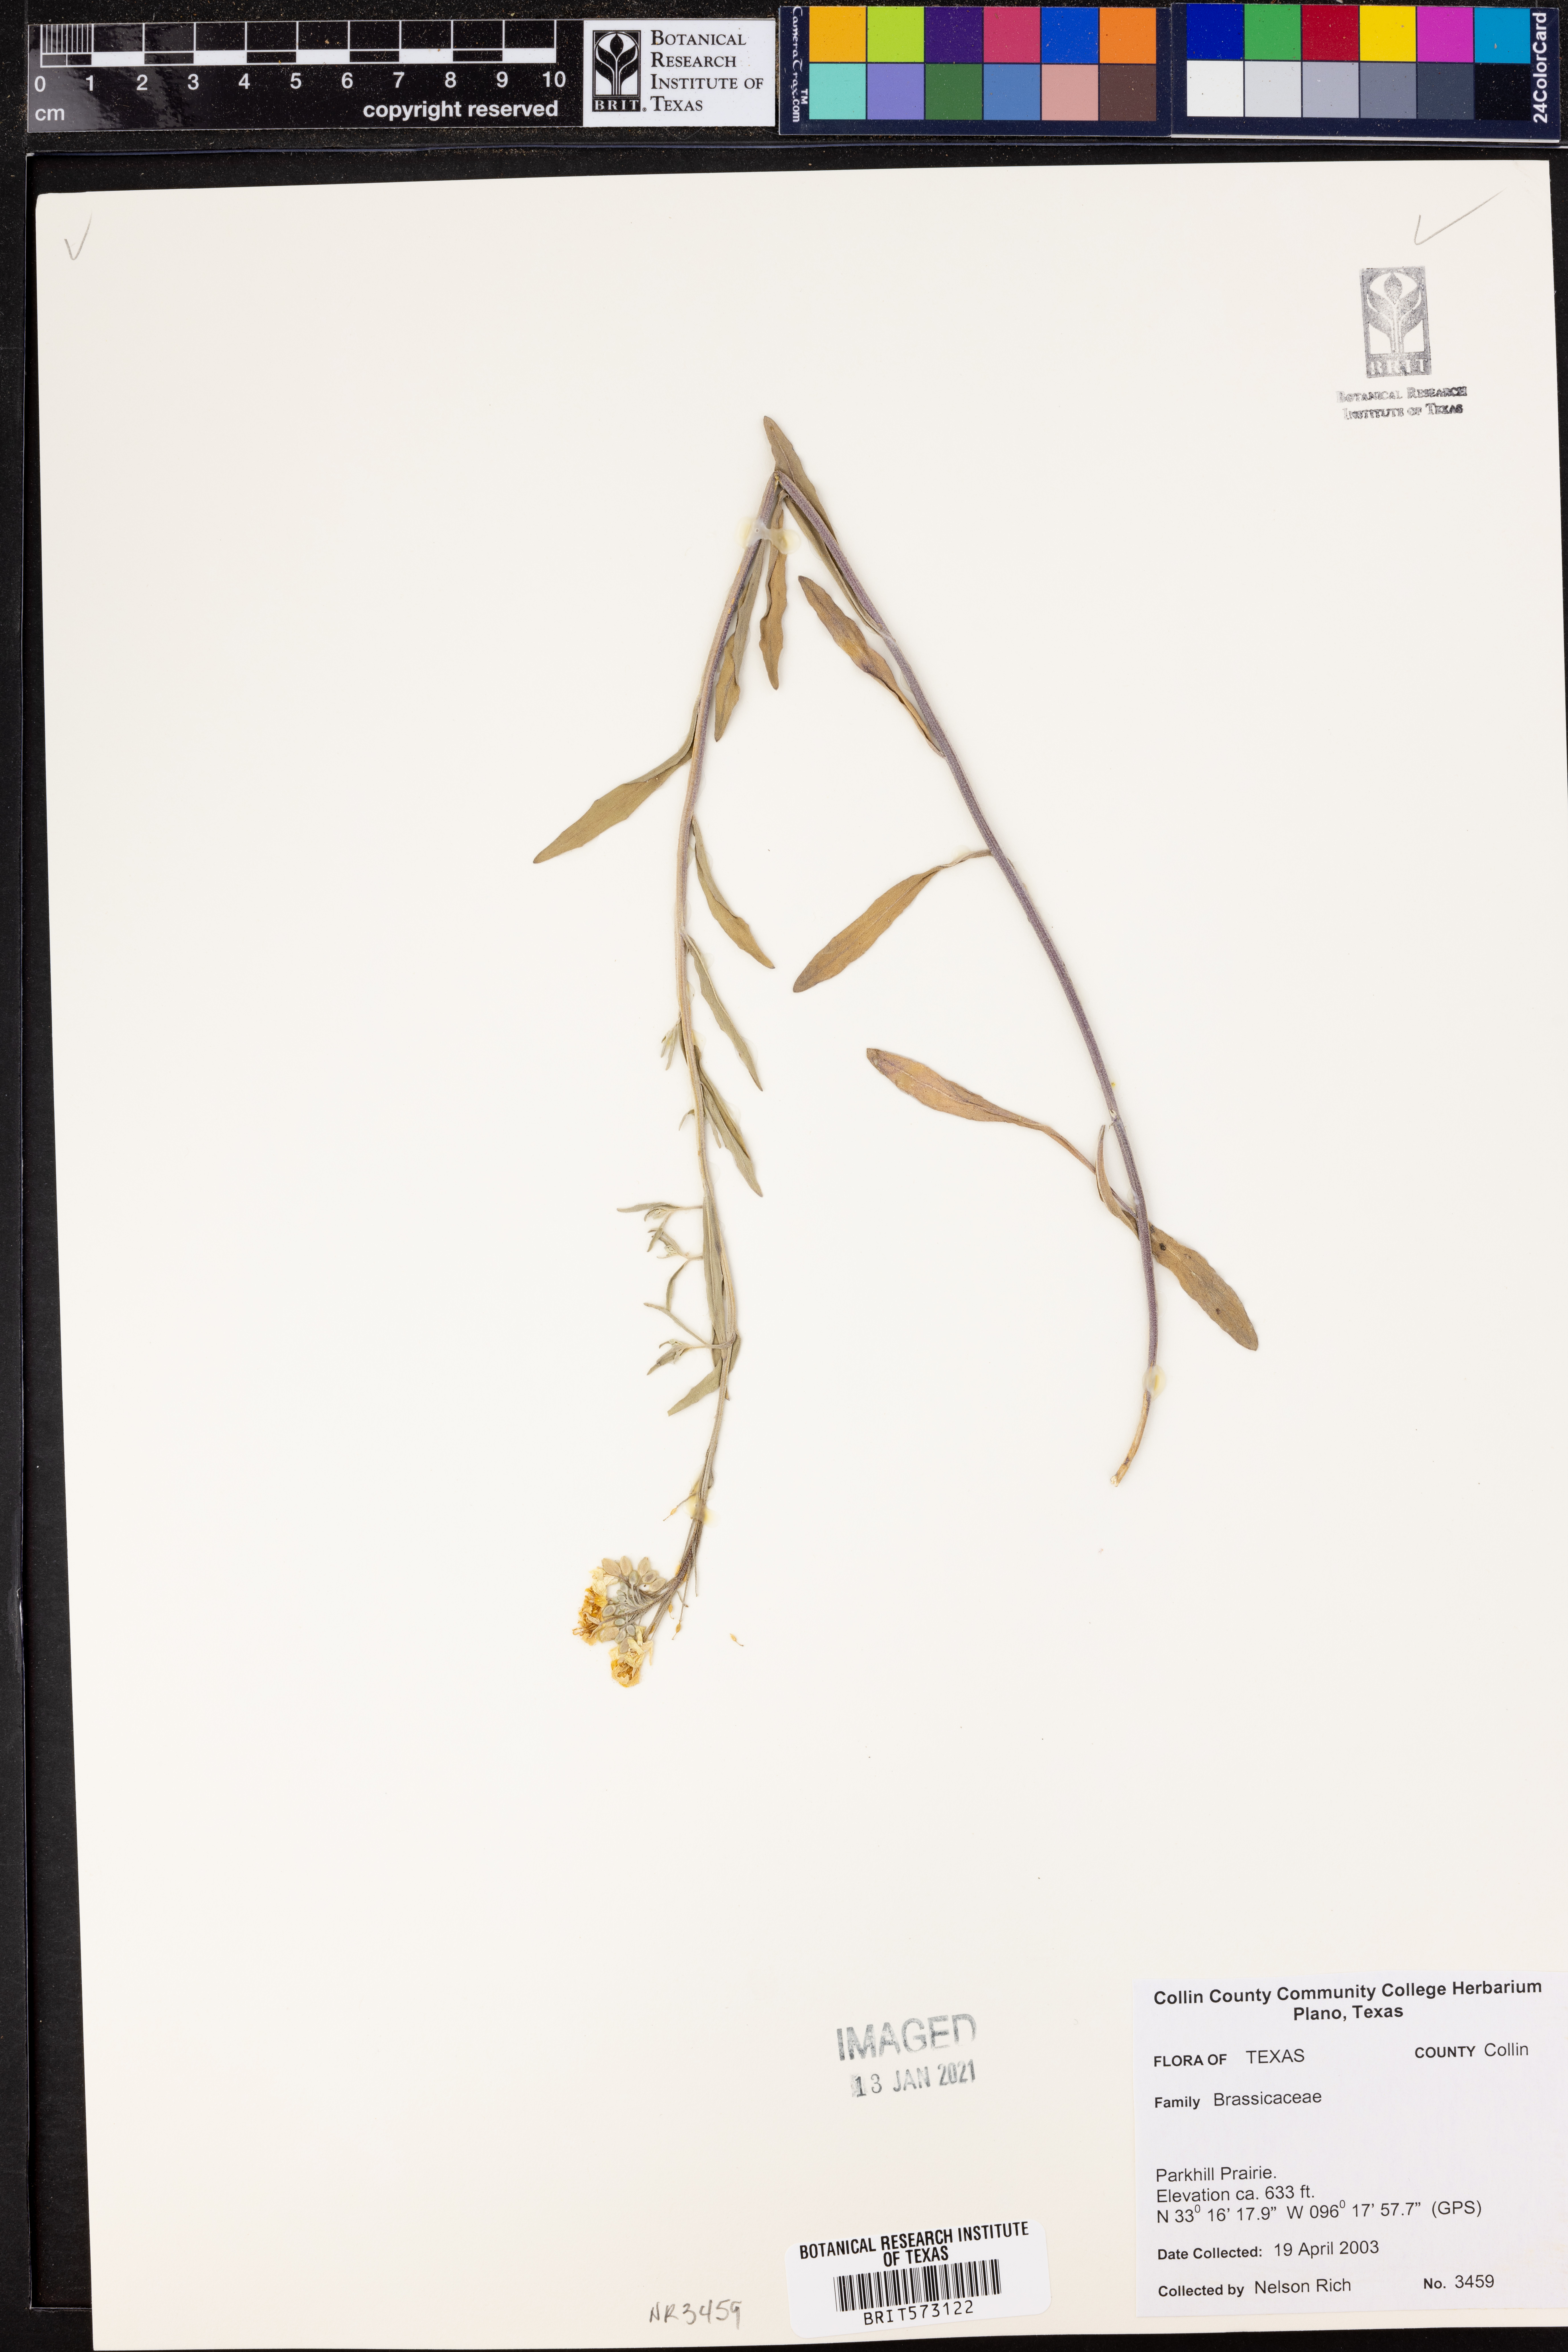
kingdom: Plantae
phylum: Tracheophyta
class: Magnoliopsida
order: Brassicales
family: Brassicaceae
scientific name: Brassicaceae
